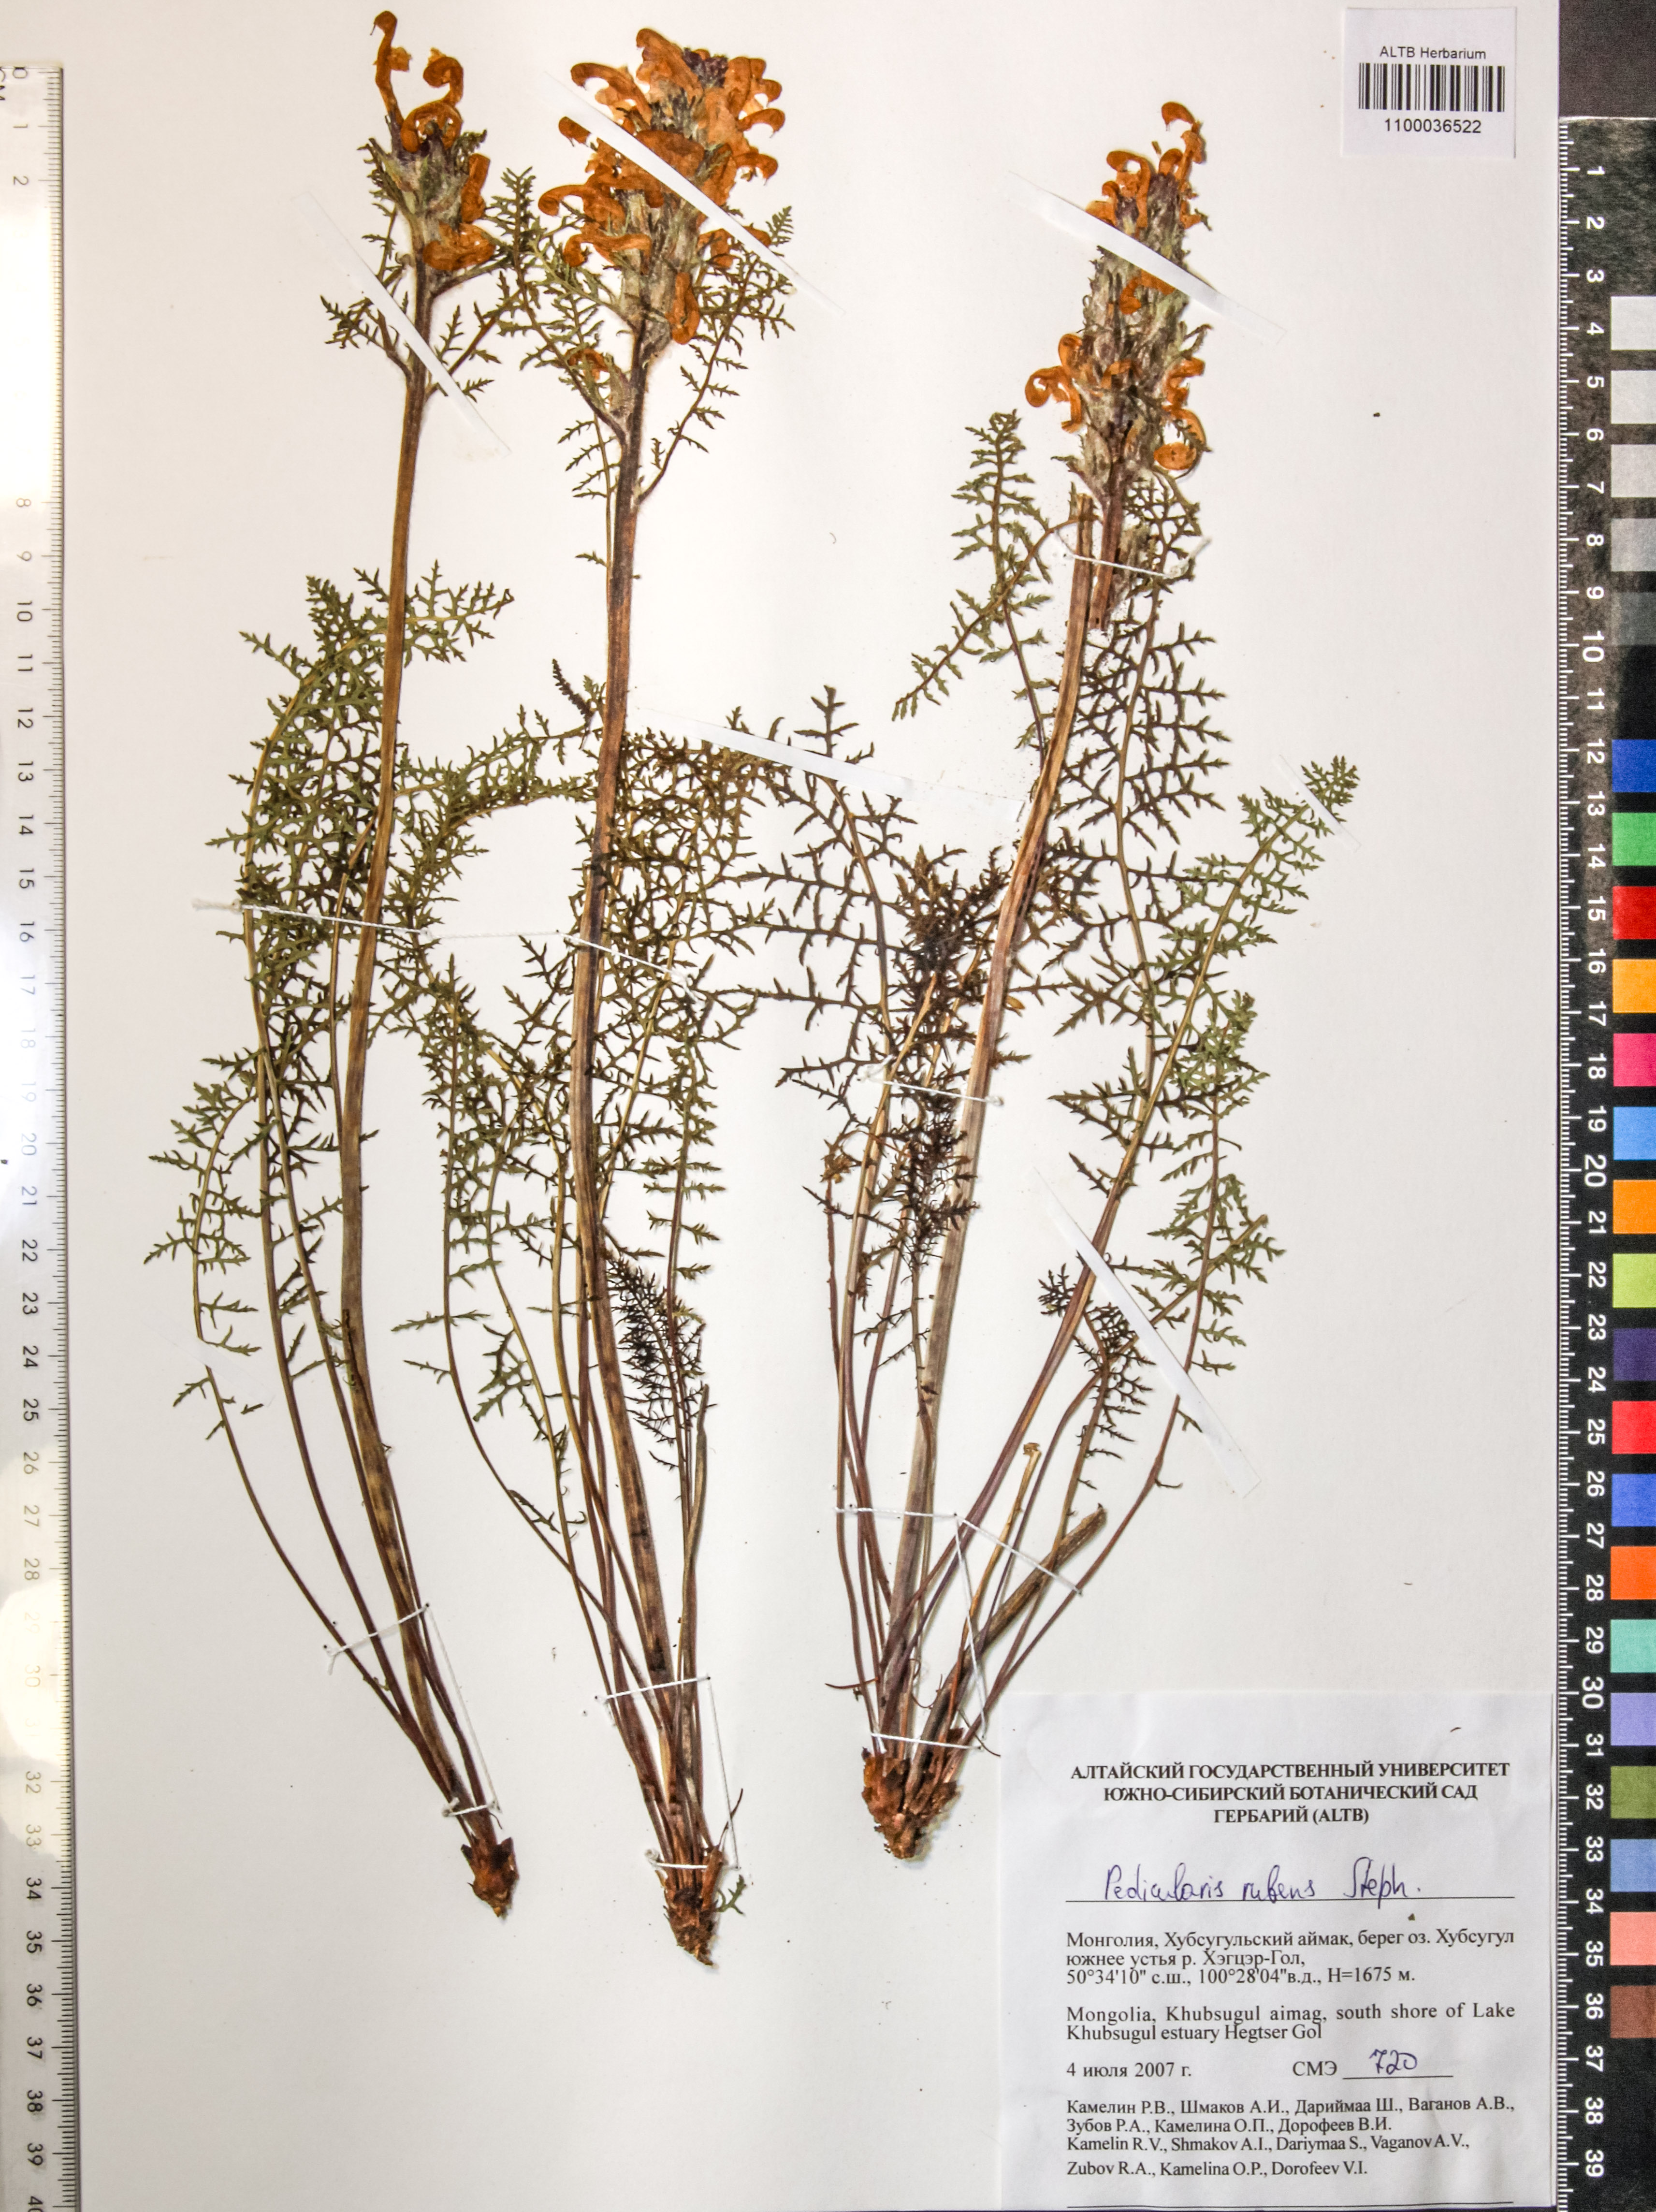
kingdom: Plantae
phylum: Tracheophyta
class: Magnoliopsida
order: Lamiales
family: Orobanchaceae
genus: Pedicularis
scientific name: Pedicularis rubens
